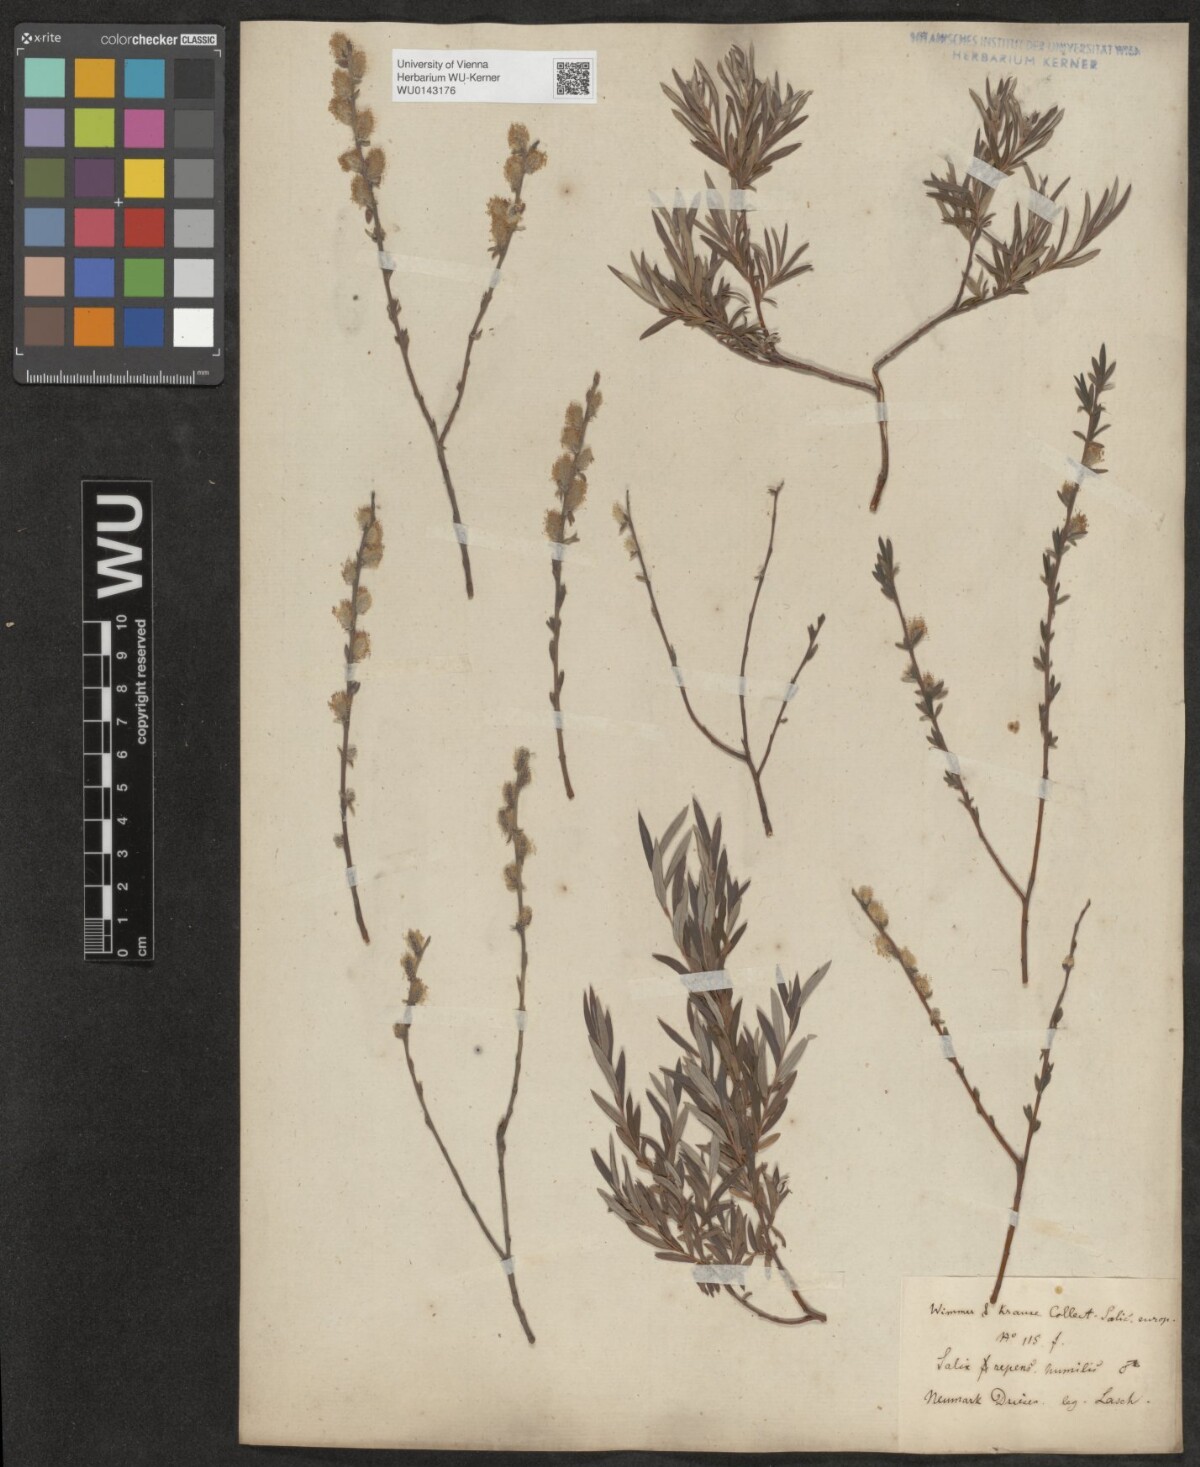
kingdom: Plantae
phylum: Tracheophyta
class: Magnoliopsida
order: Malpighiales
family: Salicaceae
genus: Salix
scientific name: Salix repens
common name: Creeping willow
